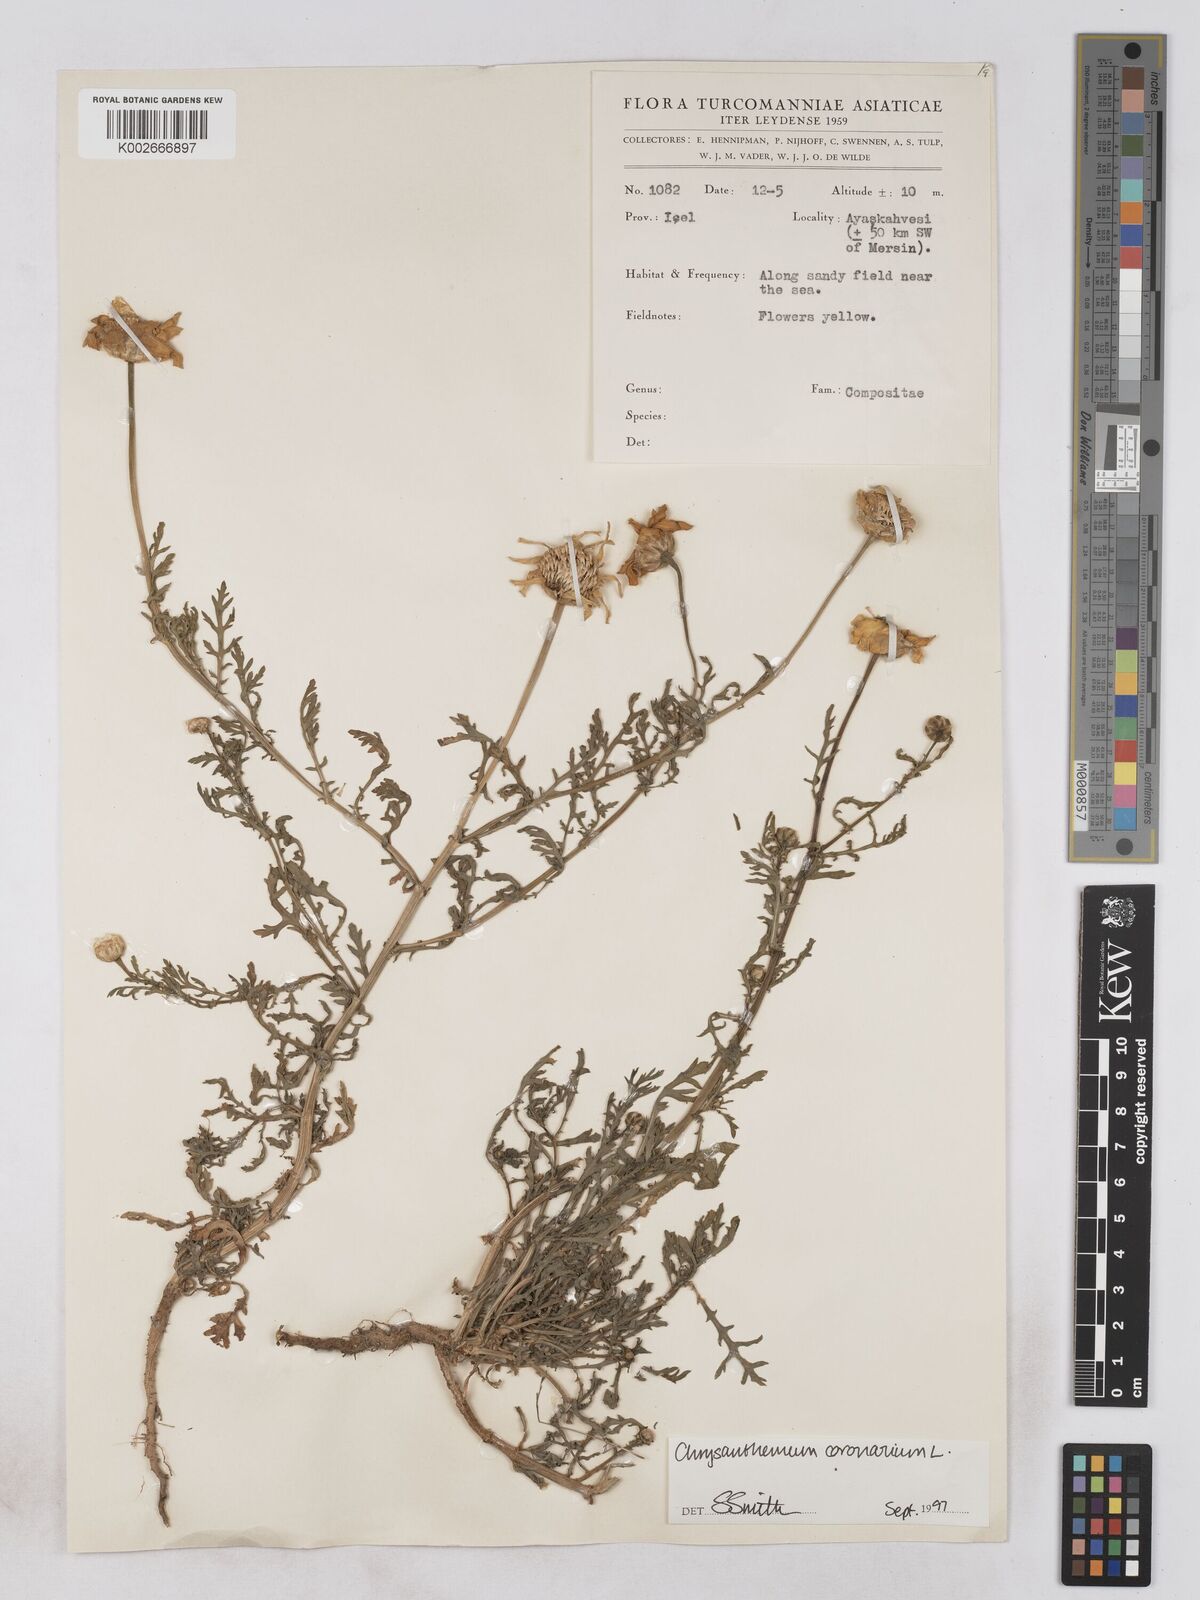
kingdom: Plantae
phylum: Tracheophyta
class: Magnoliopsida
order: Asterales
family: Asteraceae
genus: Glebionis
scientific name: Glebionis coronaria
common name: Crowndaisy
